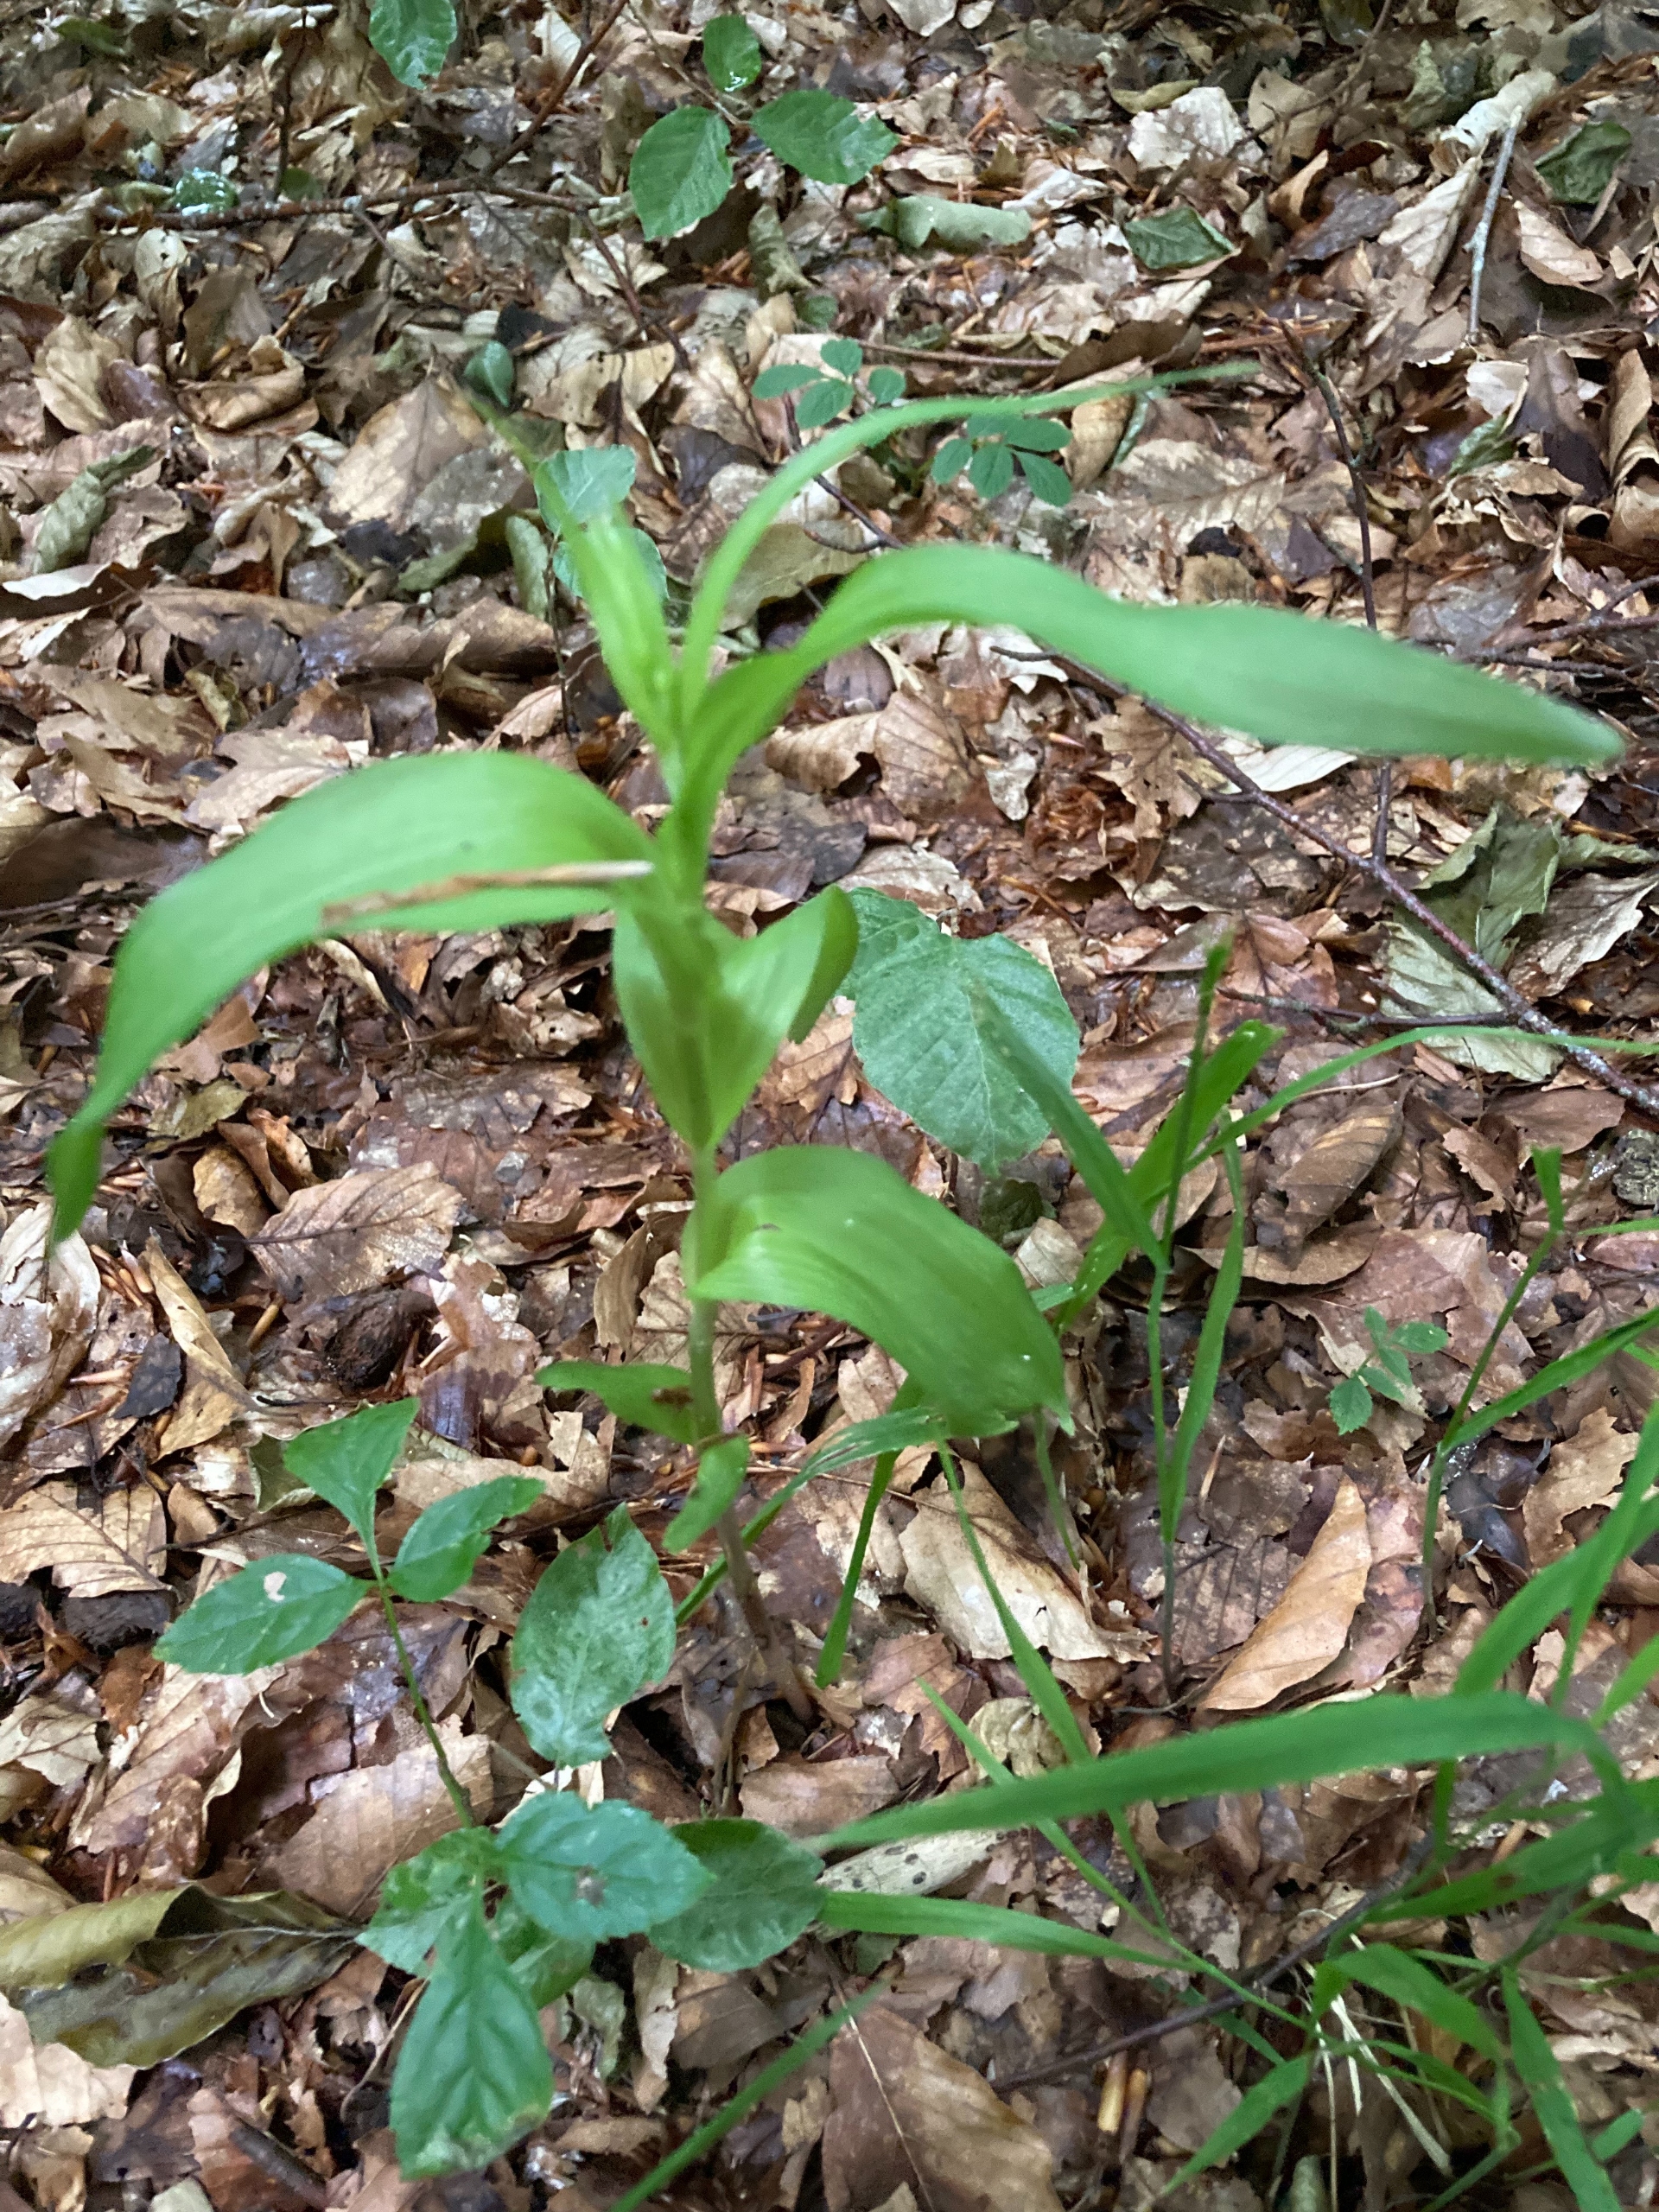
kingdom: Plantae
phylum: Tracheophyta
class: Liliopsida
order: Asparagales
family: Orchidaceae
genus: Epipactis
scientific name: Epipactis helleborine
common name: Skov-hullæbe
